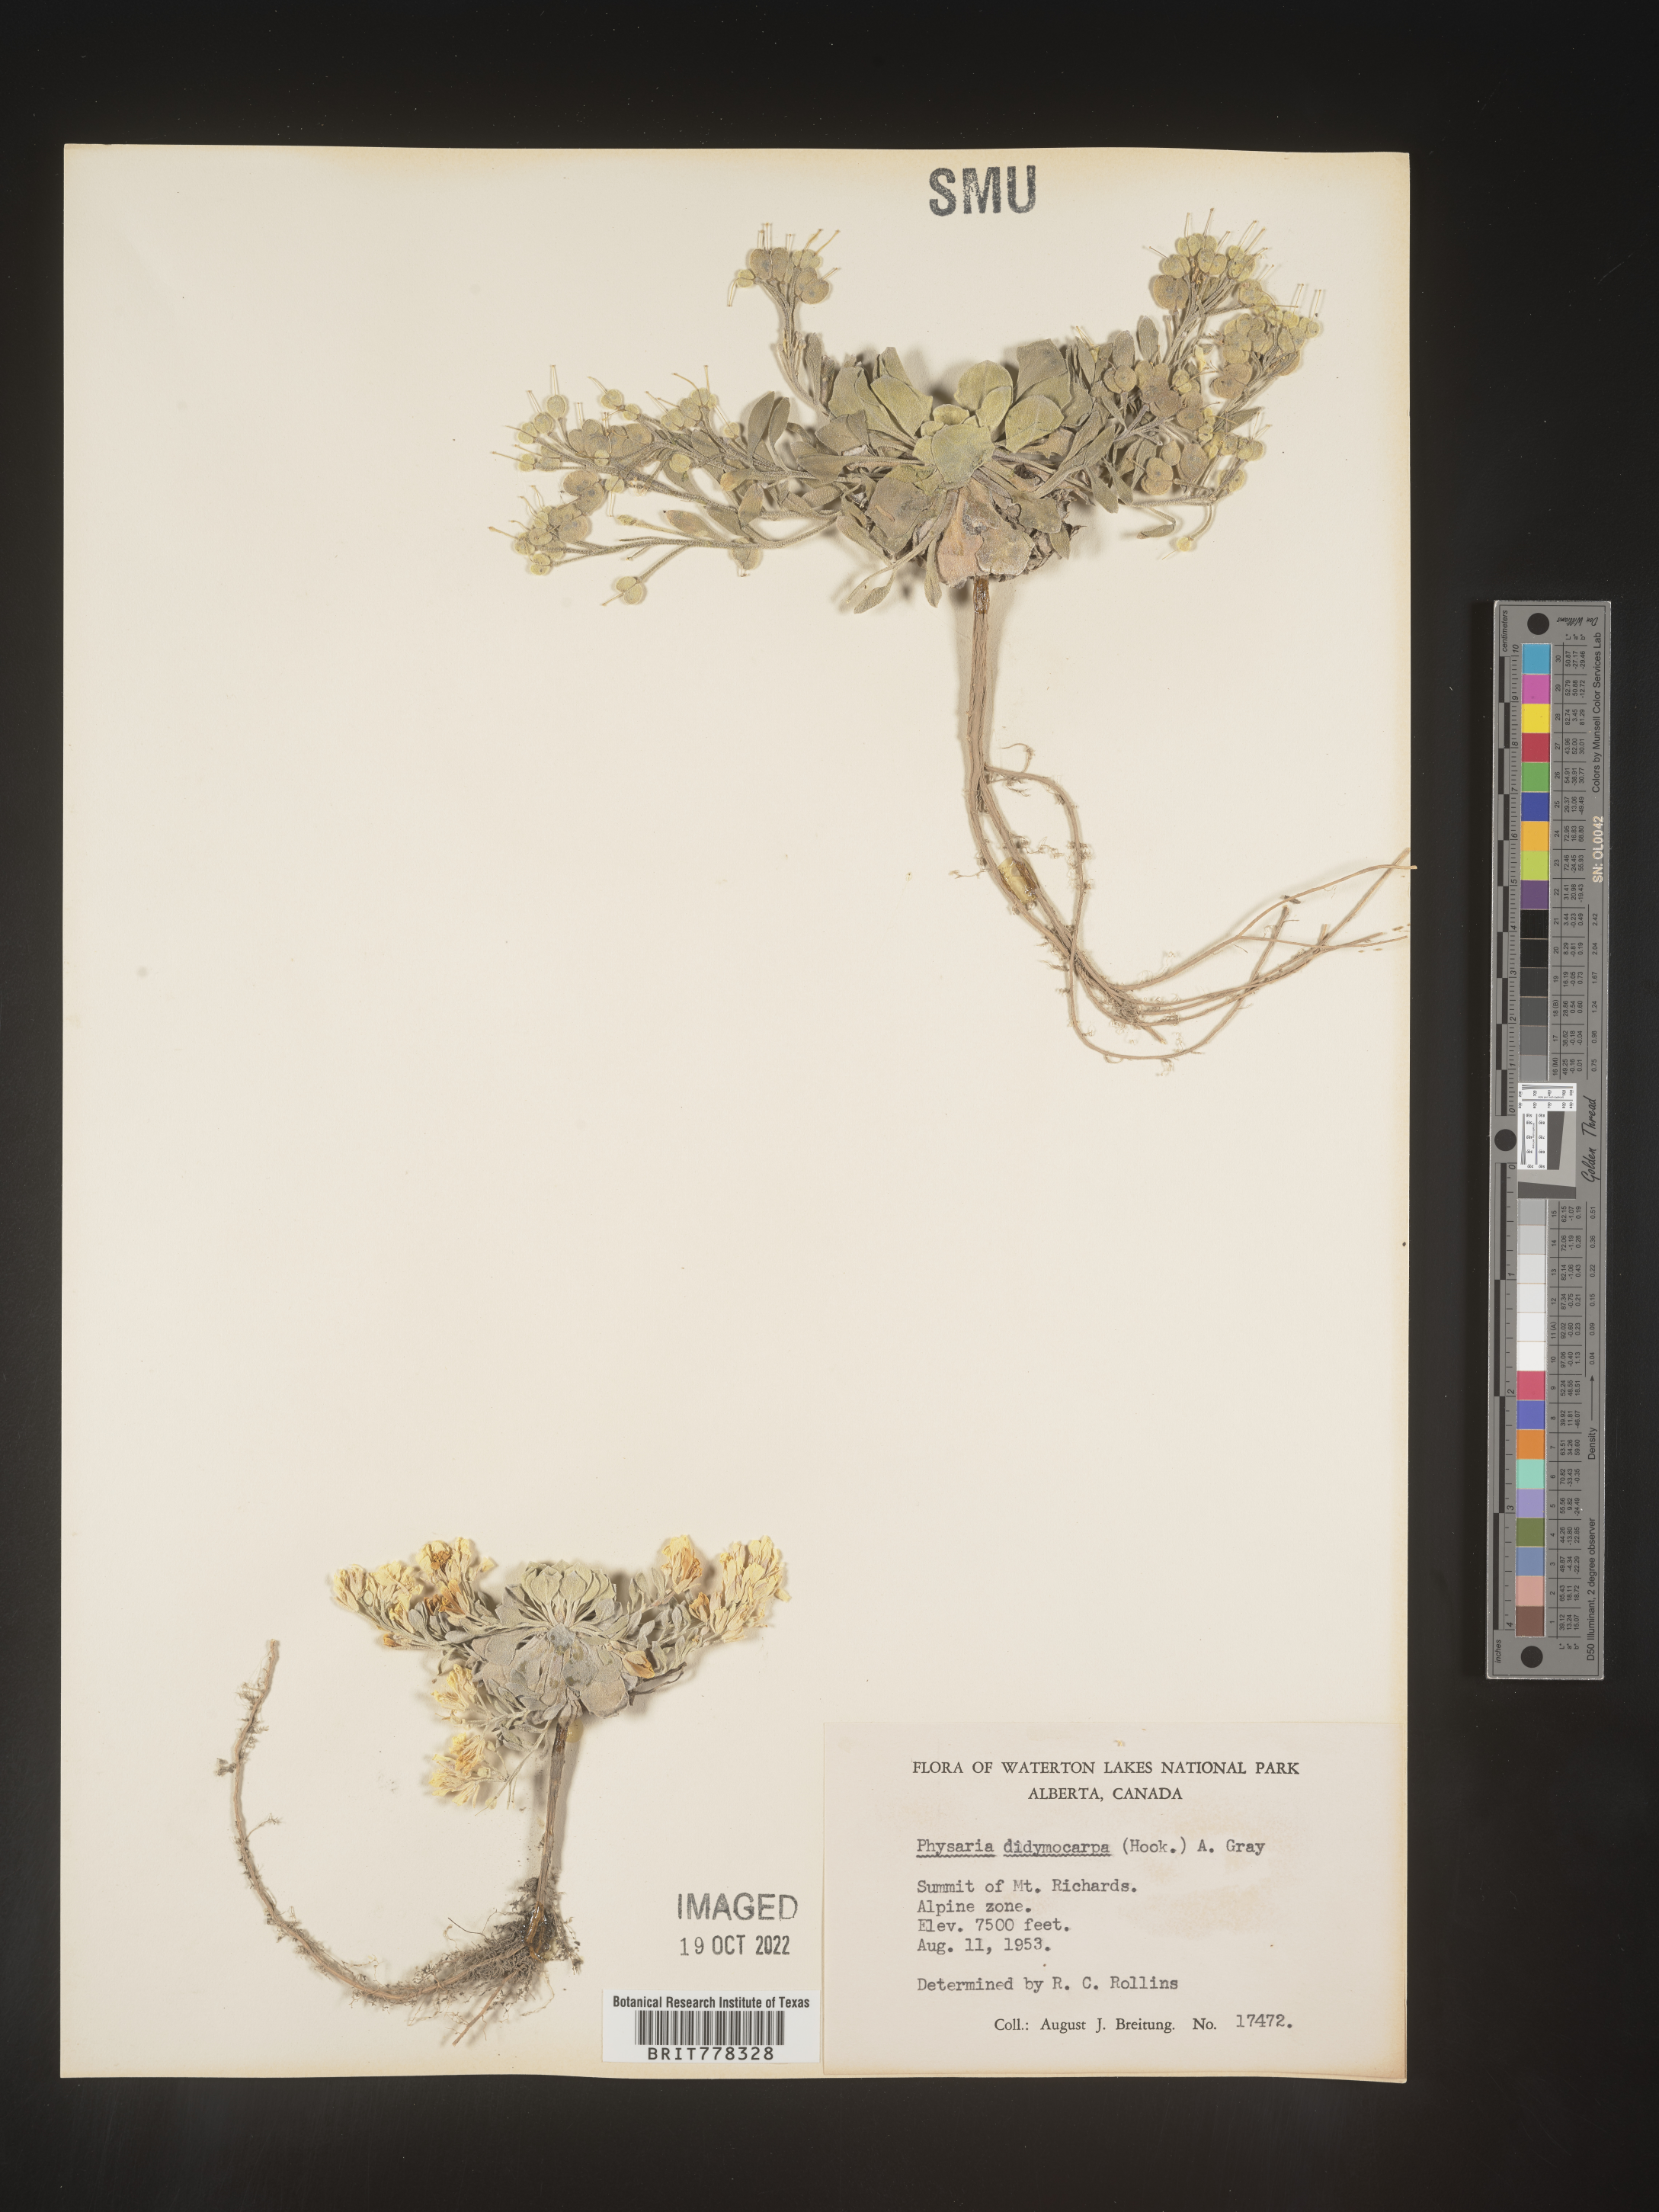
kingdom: Plantae
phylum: Tracheophyta
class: Magnoliopsida
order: Brassicales
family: Brassicaceae
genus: Physaria
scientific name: Physaria
